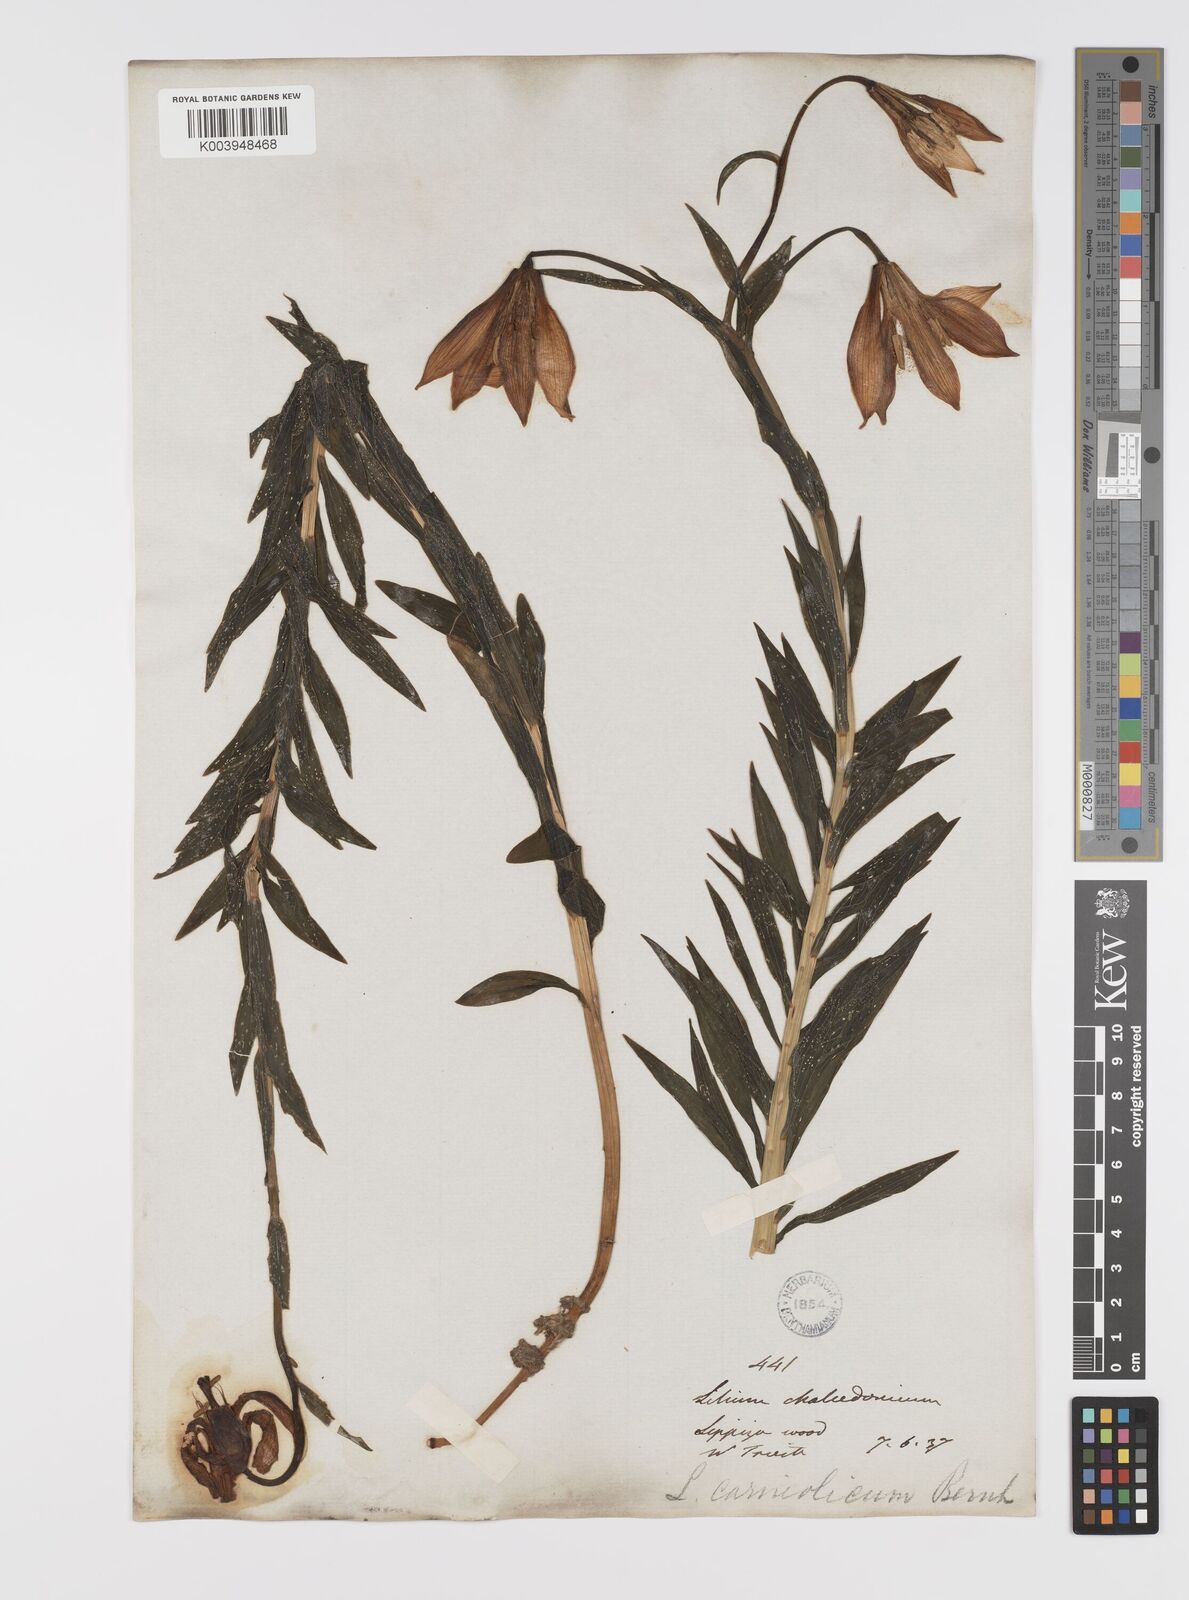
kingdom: Plantae
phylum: Tracheophyta
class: Liliopsida
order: Liliales
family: Liliaceae
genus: Lilium
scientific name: Lilium
